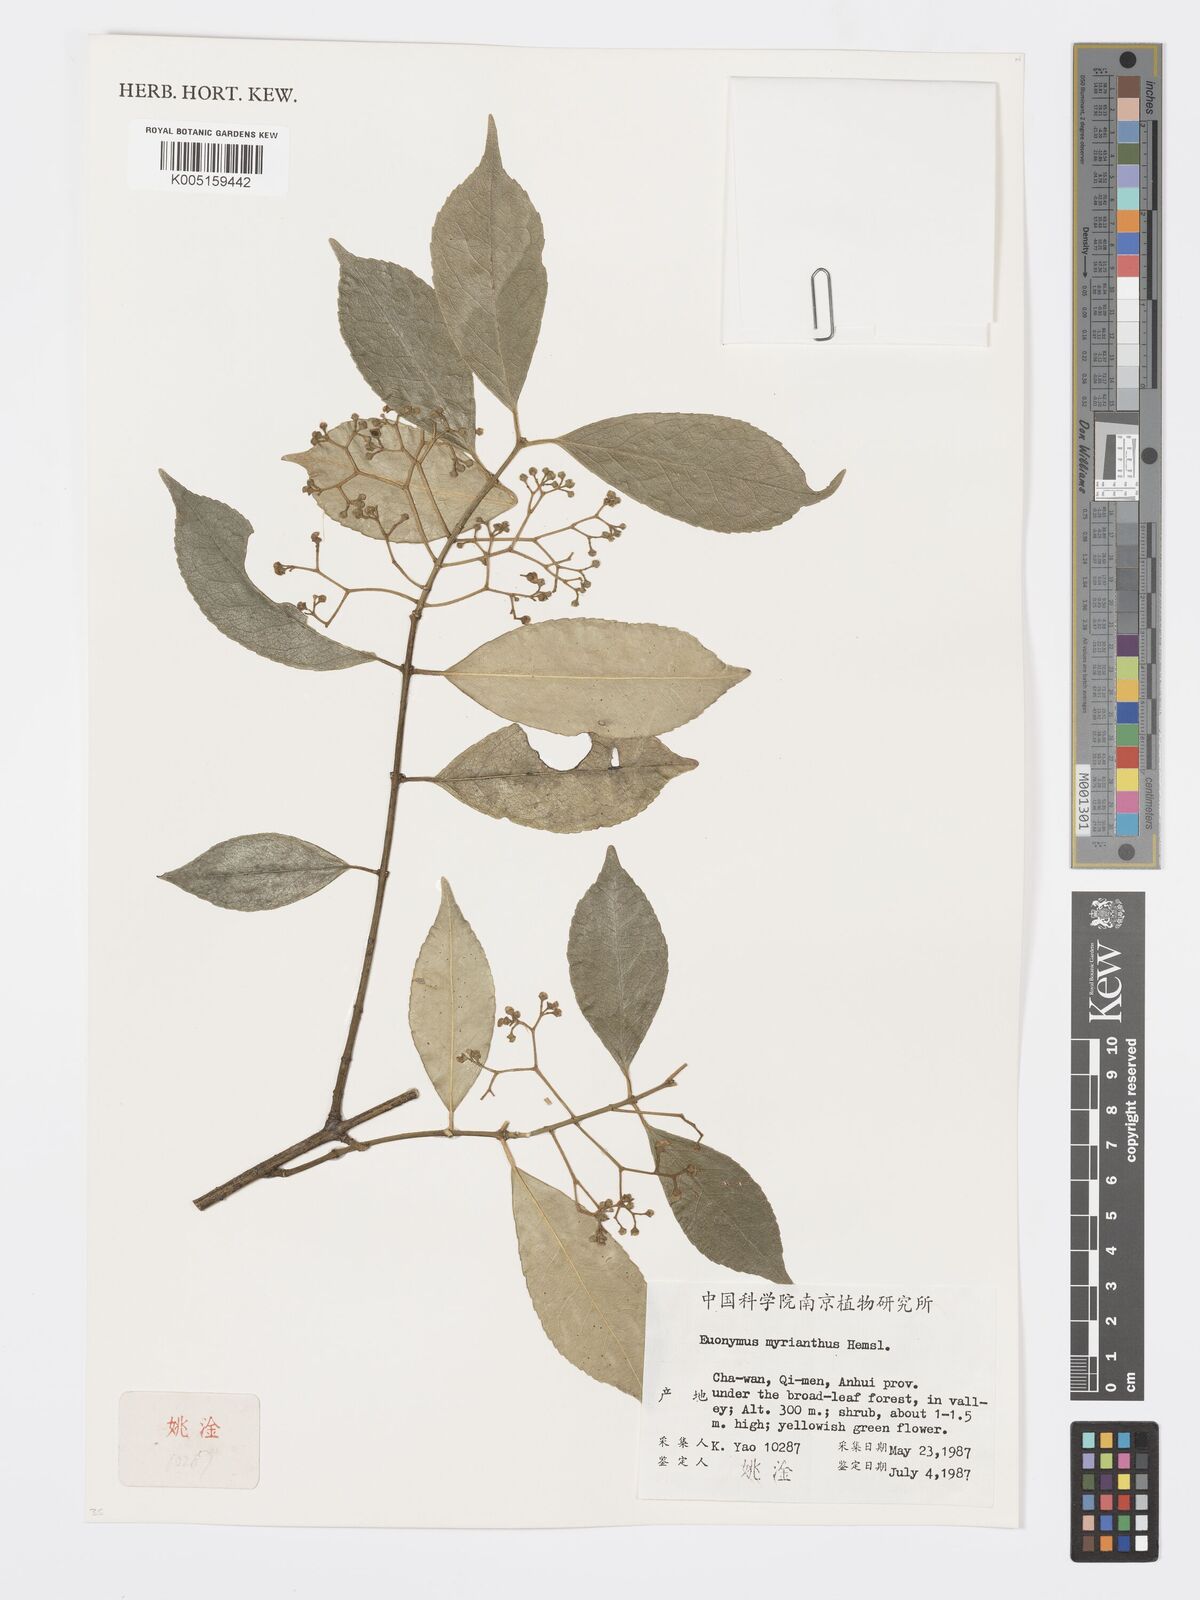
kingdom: Plantae
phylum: Tracheophyta
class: Magnoliopsida
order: Celastrales
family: Celastraceae
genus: Euonymus
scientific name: Euonymus myrianthus
